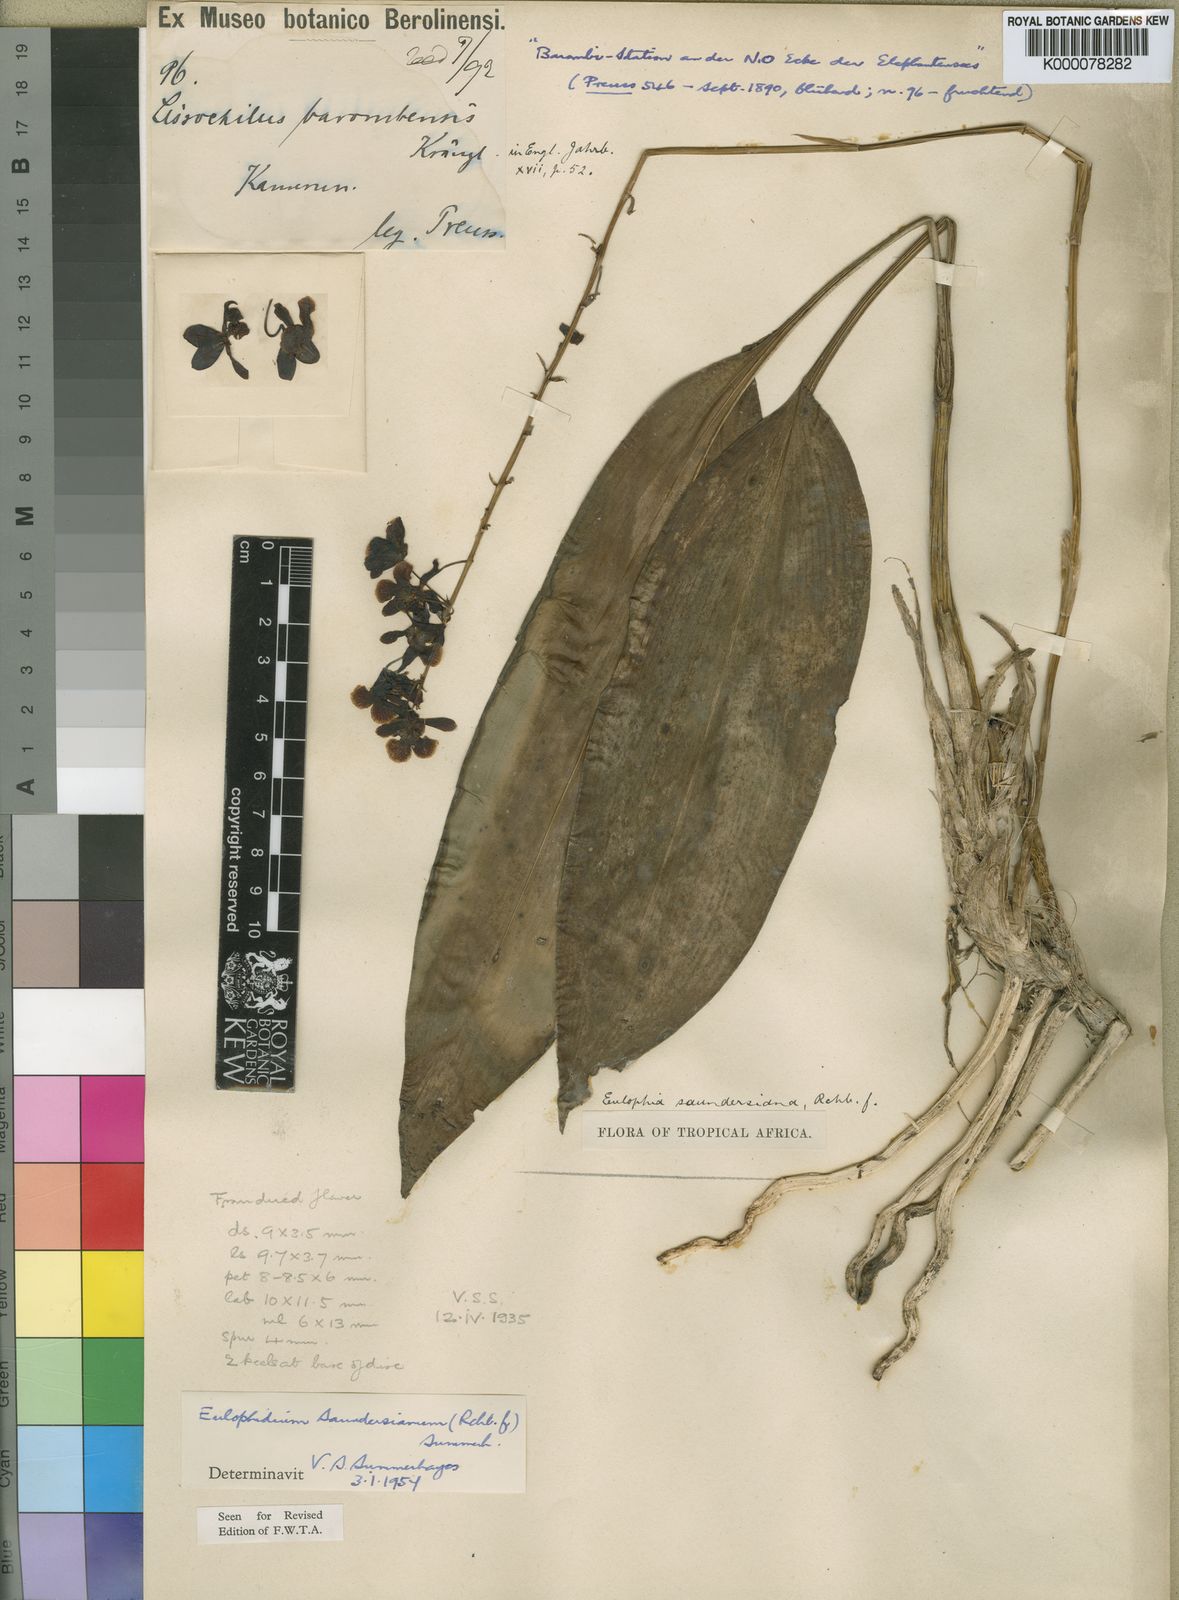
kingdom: Plantae
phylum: Tracheophyta
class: Liliopsida
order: Asparagales
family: Orchidaceae
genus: Eulophia
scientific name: Eulophia saundersiana
